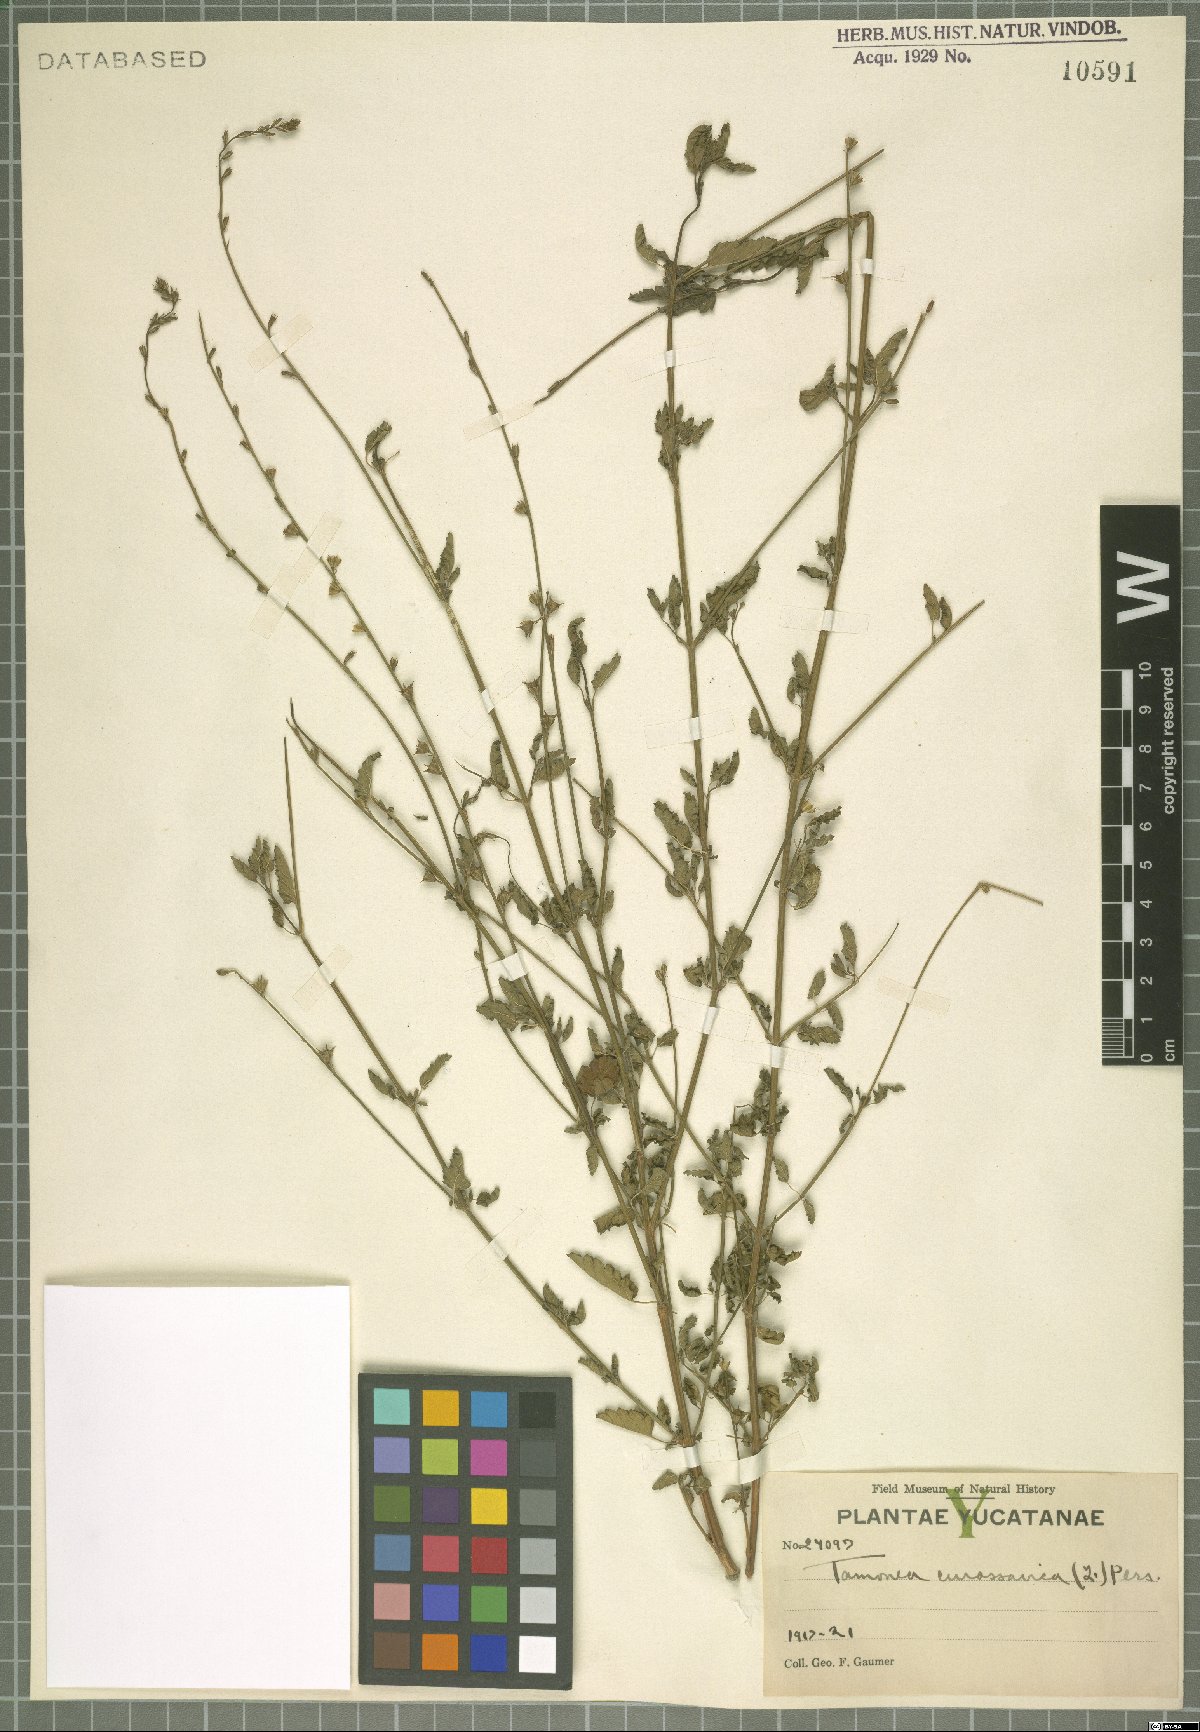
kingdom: Plantae
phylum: Tracheophyta
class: Magnoliopsida
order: Lamiales
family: Verbenaceae
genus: Tamonea
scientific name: Tamonea curassavica
